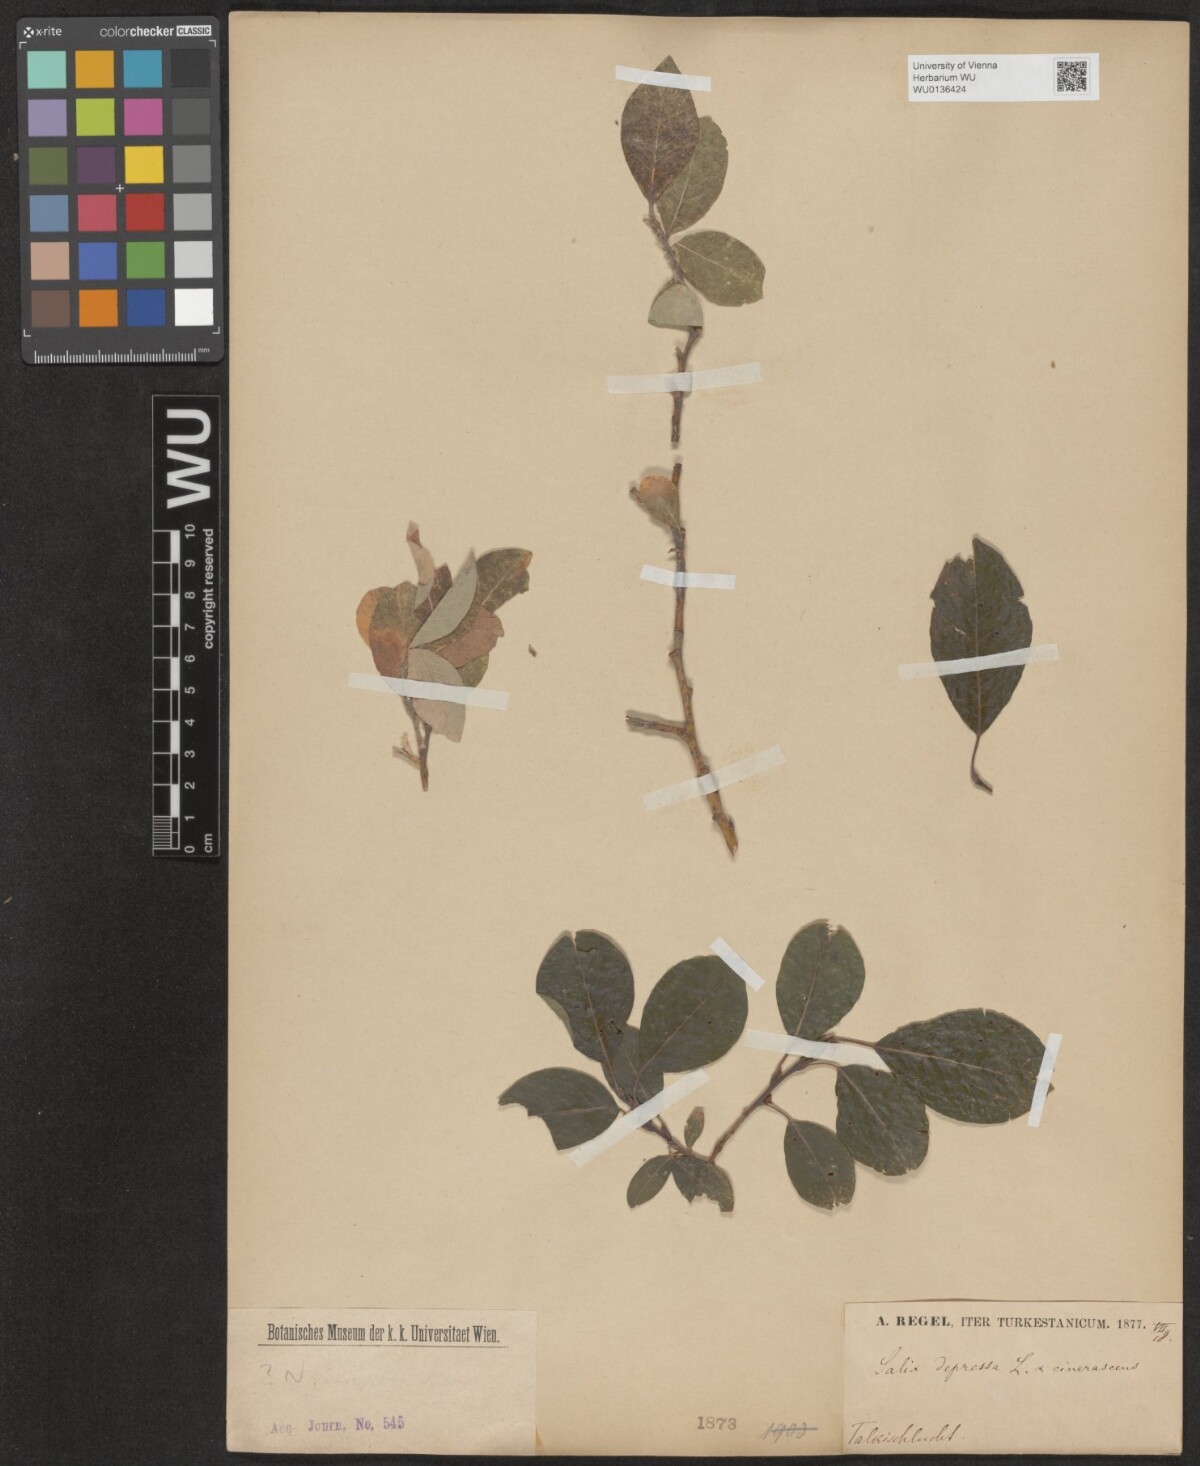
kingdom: Plantae
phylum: Tracheophyta
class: Magnoliopsida
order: Malpighiales
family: Salicaceae
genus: Salix
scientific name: Salix bebbiana
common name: Bebb's willow
